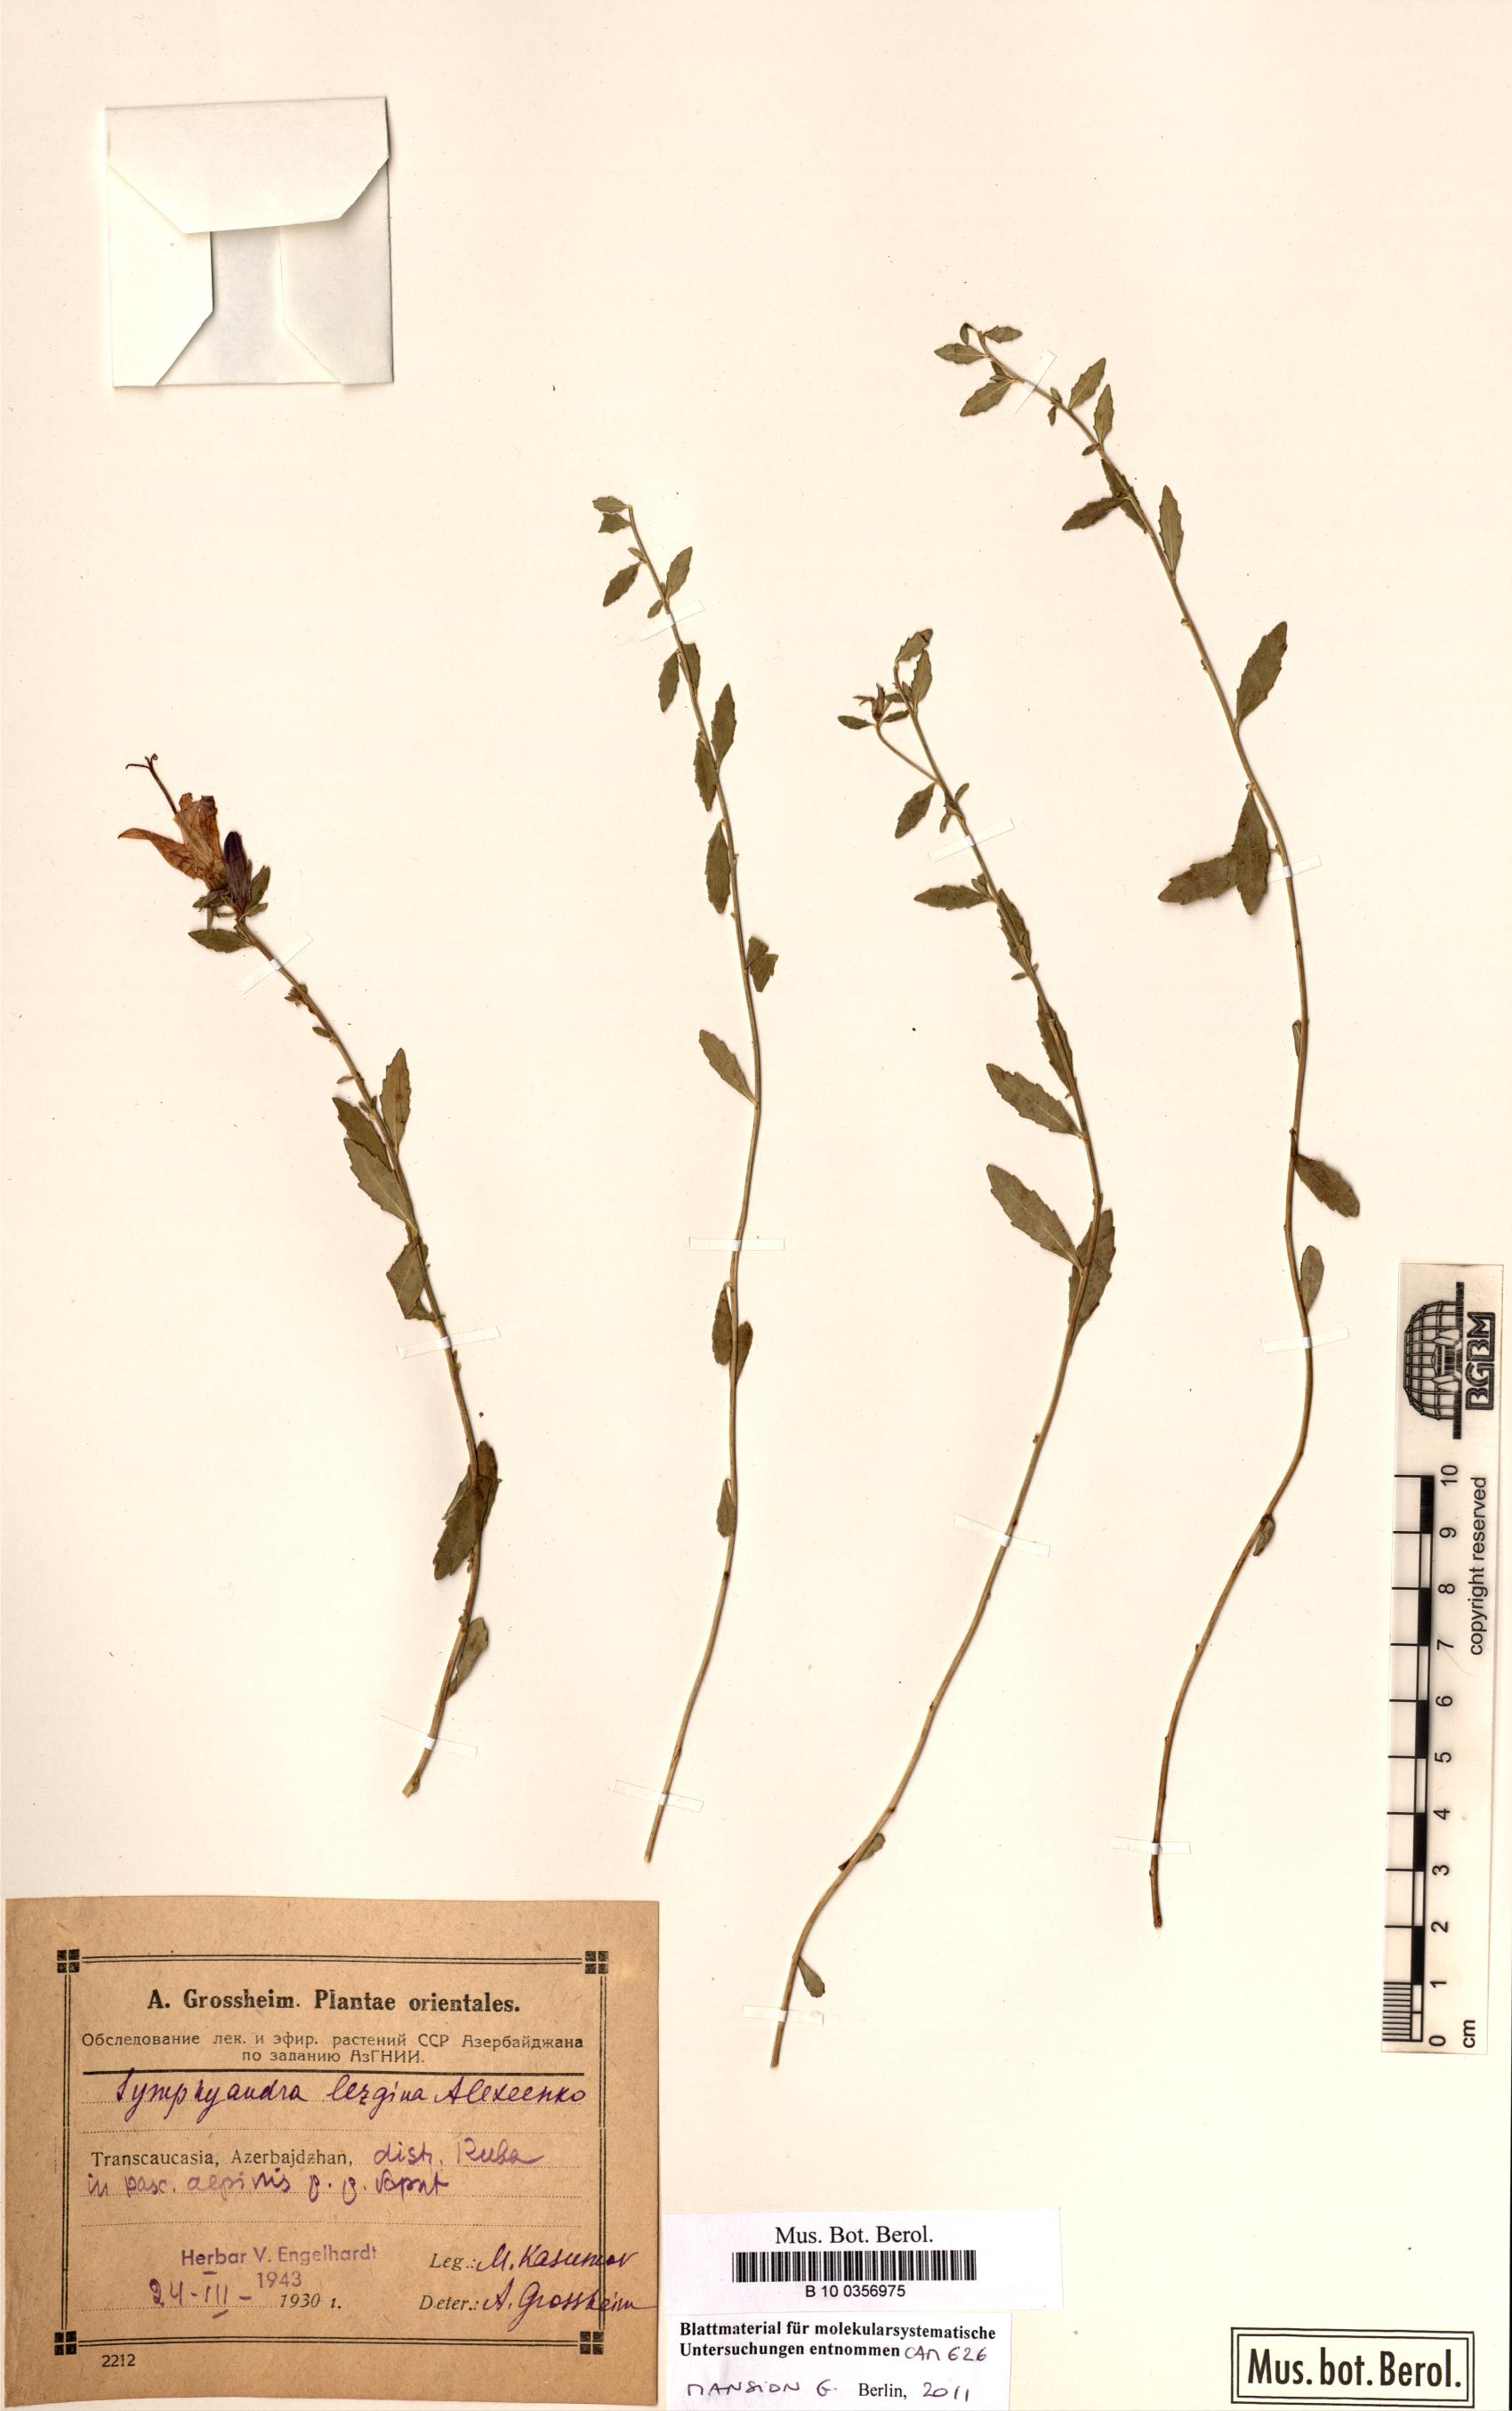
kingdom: Plantae
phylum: Tracheophyta
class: Magnoliopsida
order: Asterales
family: Campanulaceae
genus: Campanula
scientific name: Campanula lezgina
